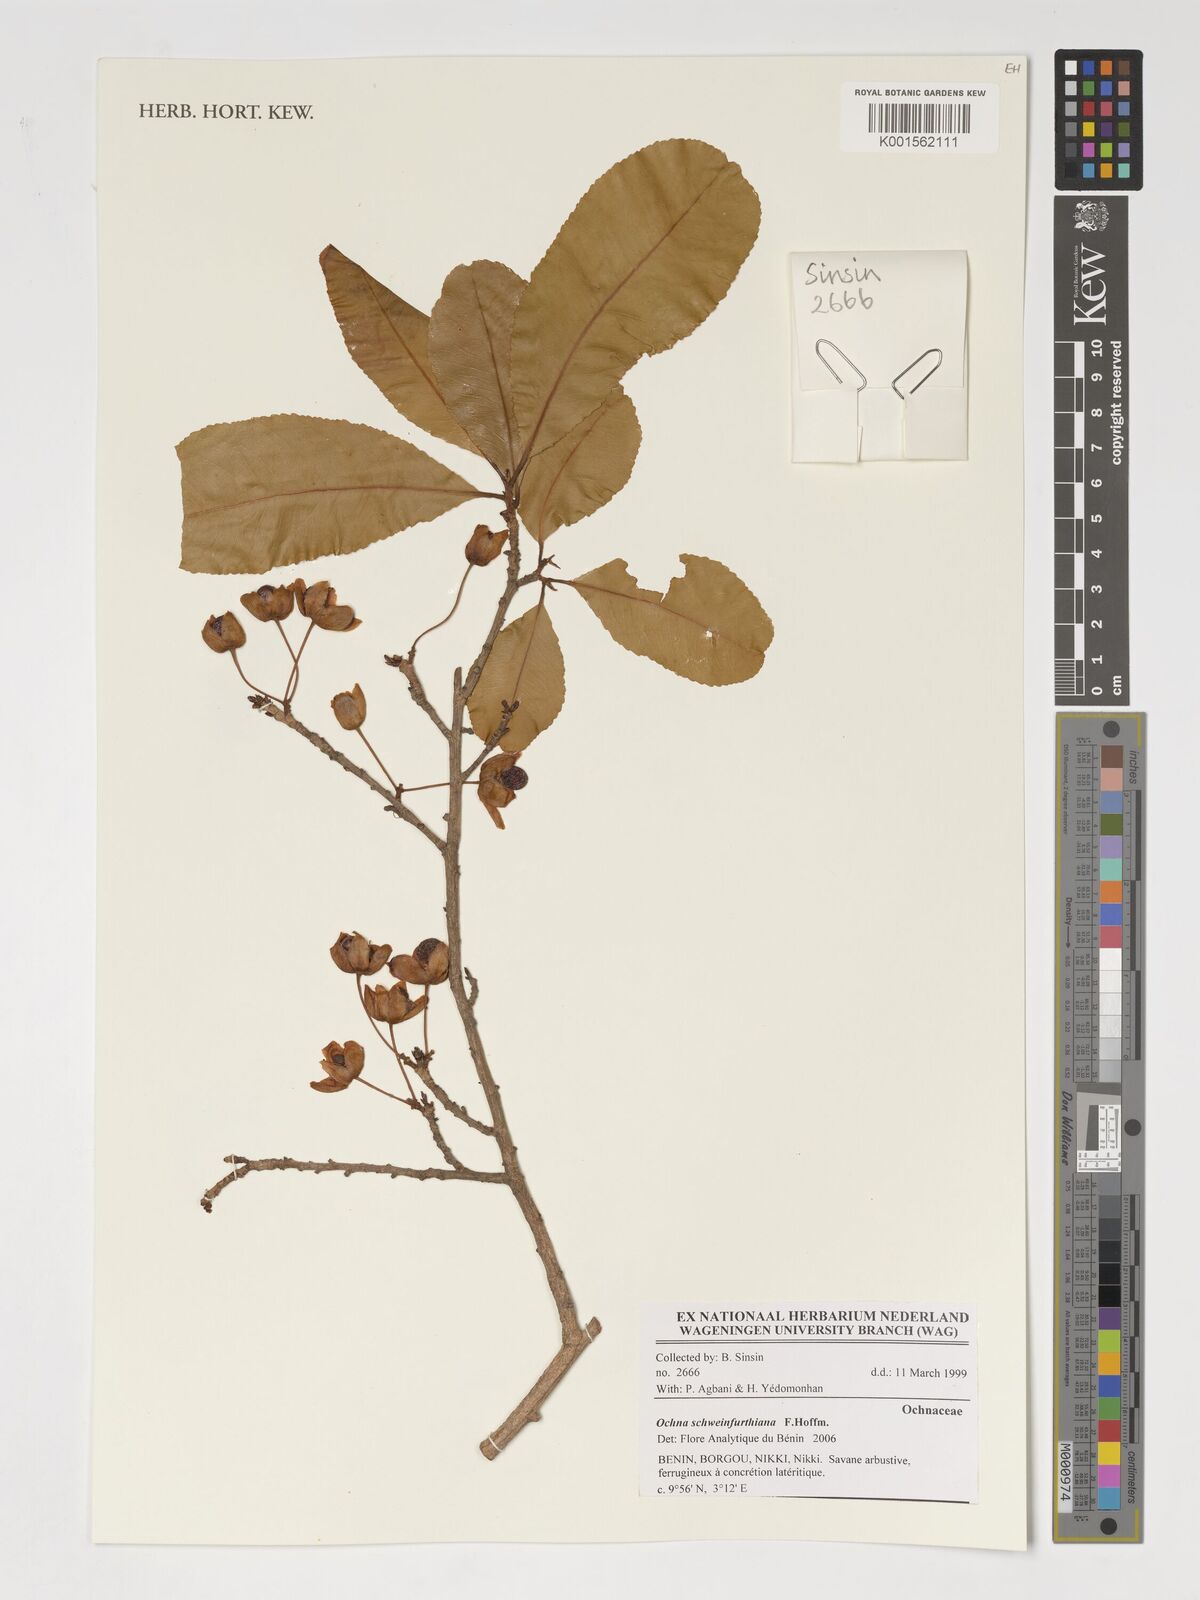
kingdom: Plantae
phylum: Tracheophyta
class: Magnoliopsida
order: Malpighiales
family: Ochnaceae
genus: Ochna
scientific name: Ochna schweinfurthiana
